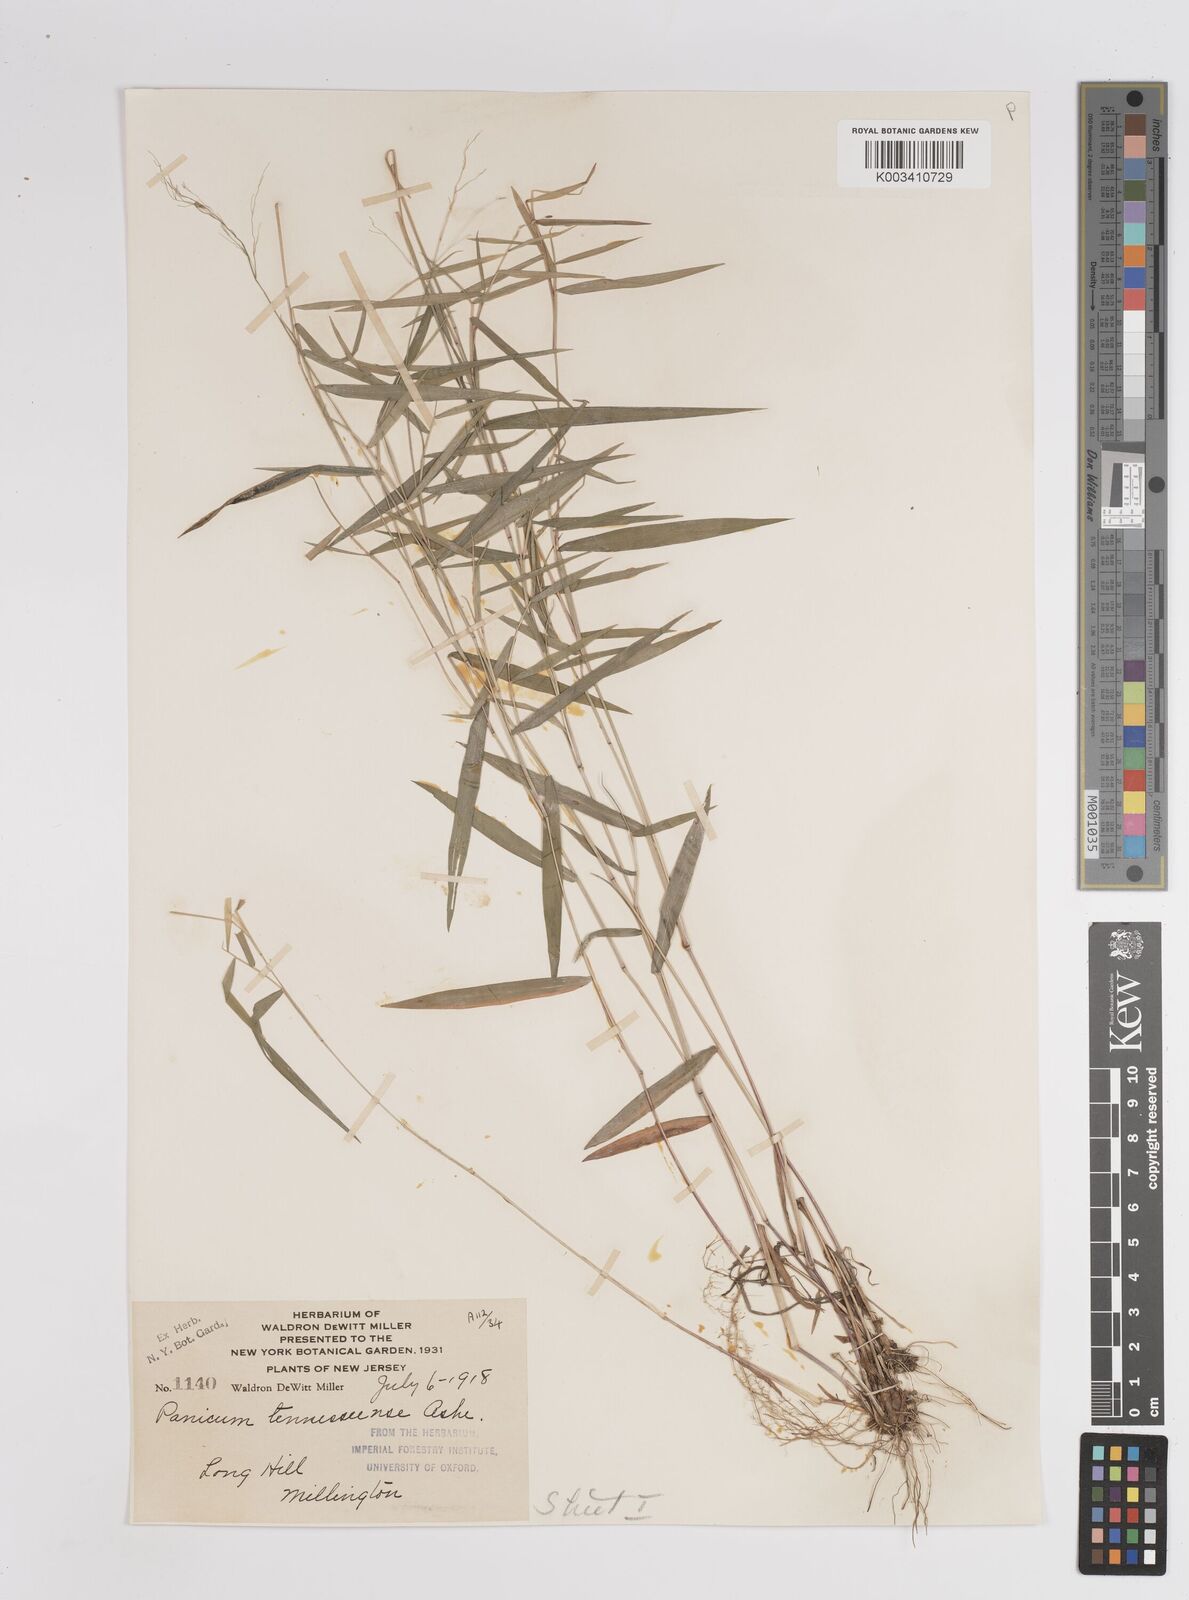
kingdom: Plantae
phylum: Tracheophyta
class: Liliopsida
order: Poales
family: Poaceae
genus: Dichanthelium
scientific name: Dichanthelium acuminatum
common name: Hairy panic grass
